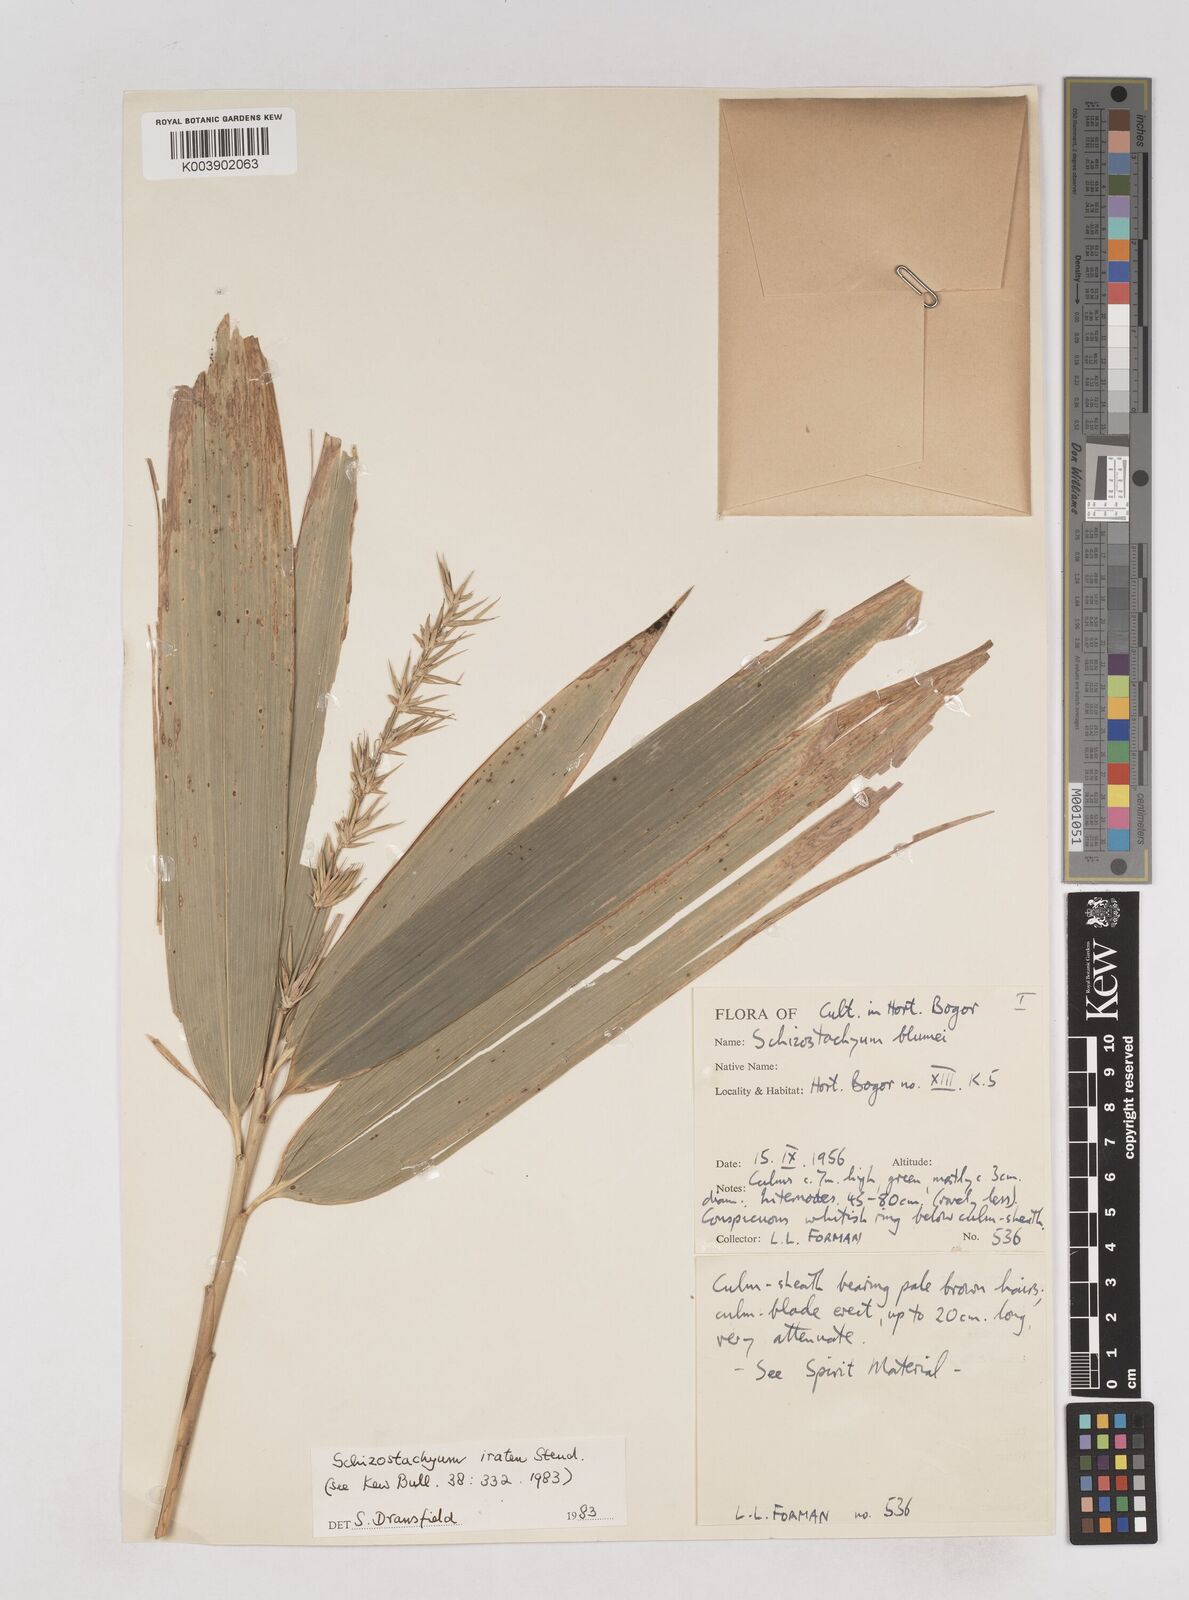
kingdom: Plantae
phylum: Tracheophyta
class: Liliopsida
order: Poales
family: Poaceae
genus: Schizostachyum
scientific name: Schizostachyum iraten
